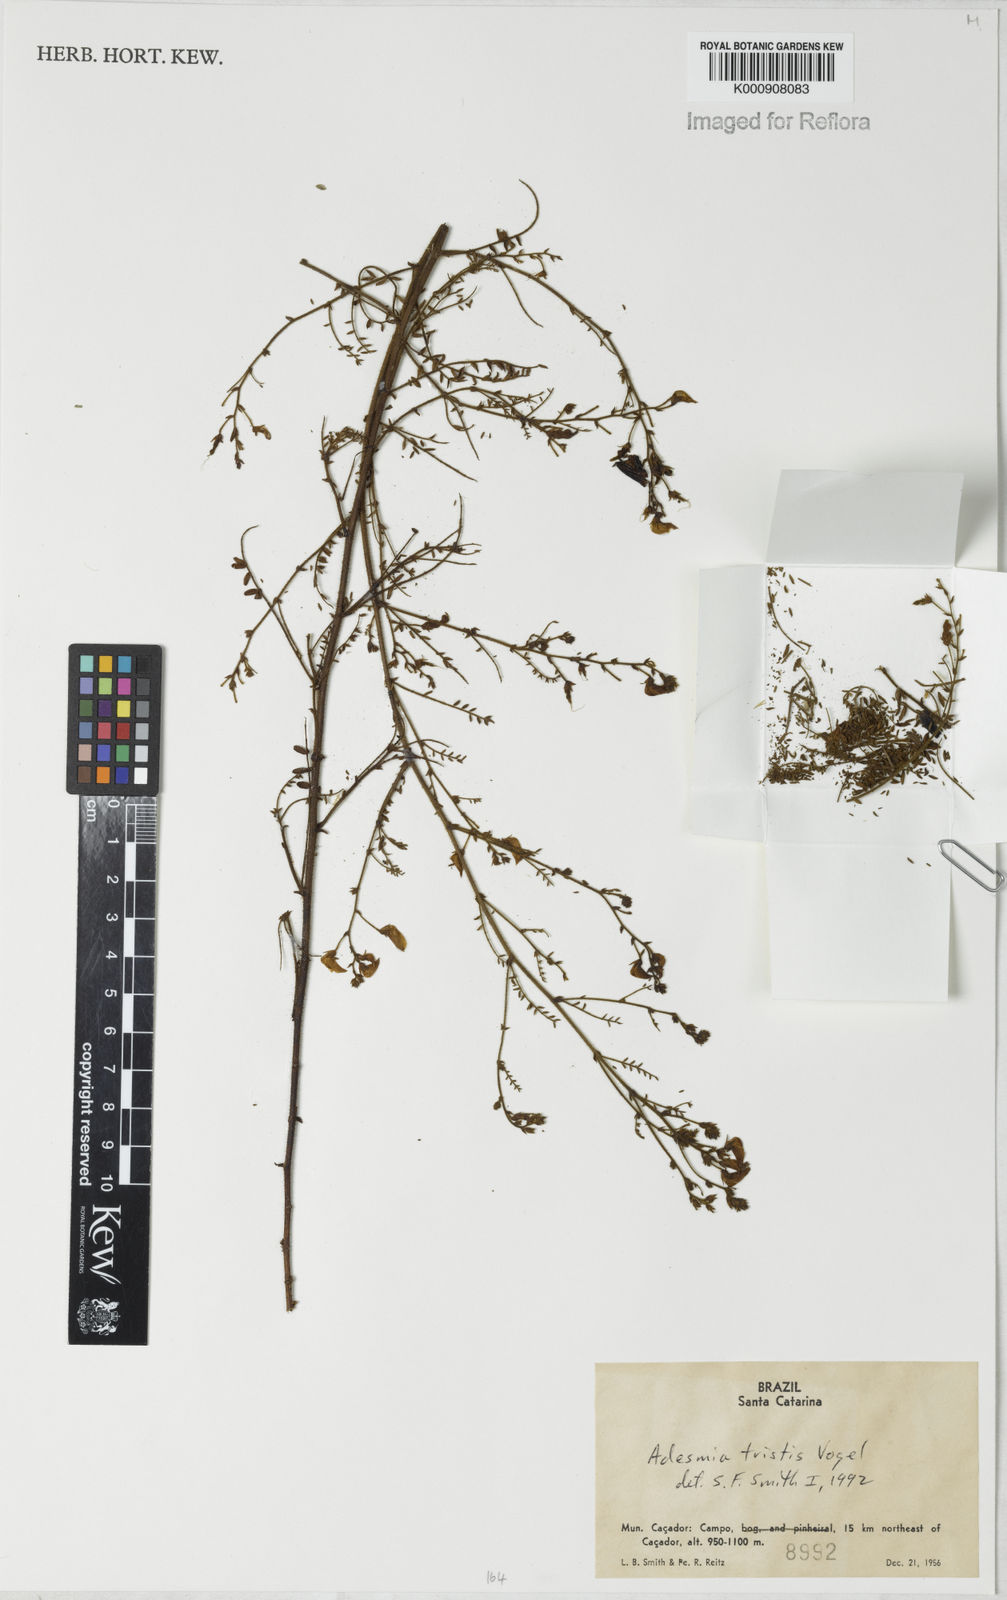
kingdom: Plantae
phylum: Tracheophyta
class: Magnoliopsida
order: Fabales
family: Fabaceae
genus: Adesmia
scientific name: Adesmia tristis
